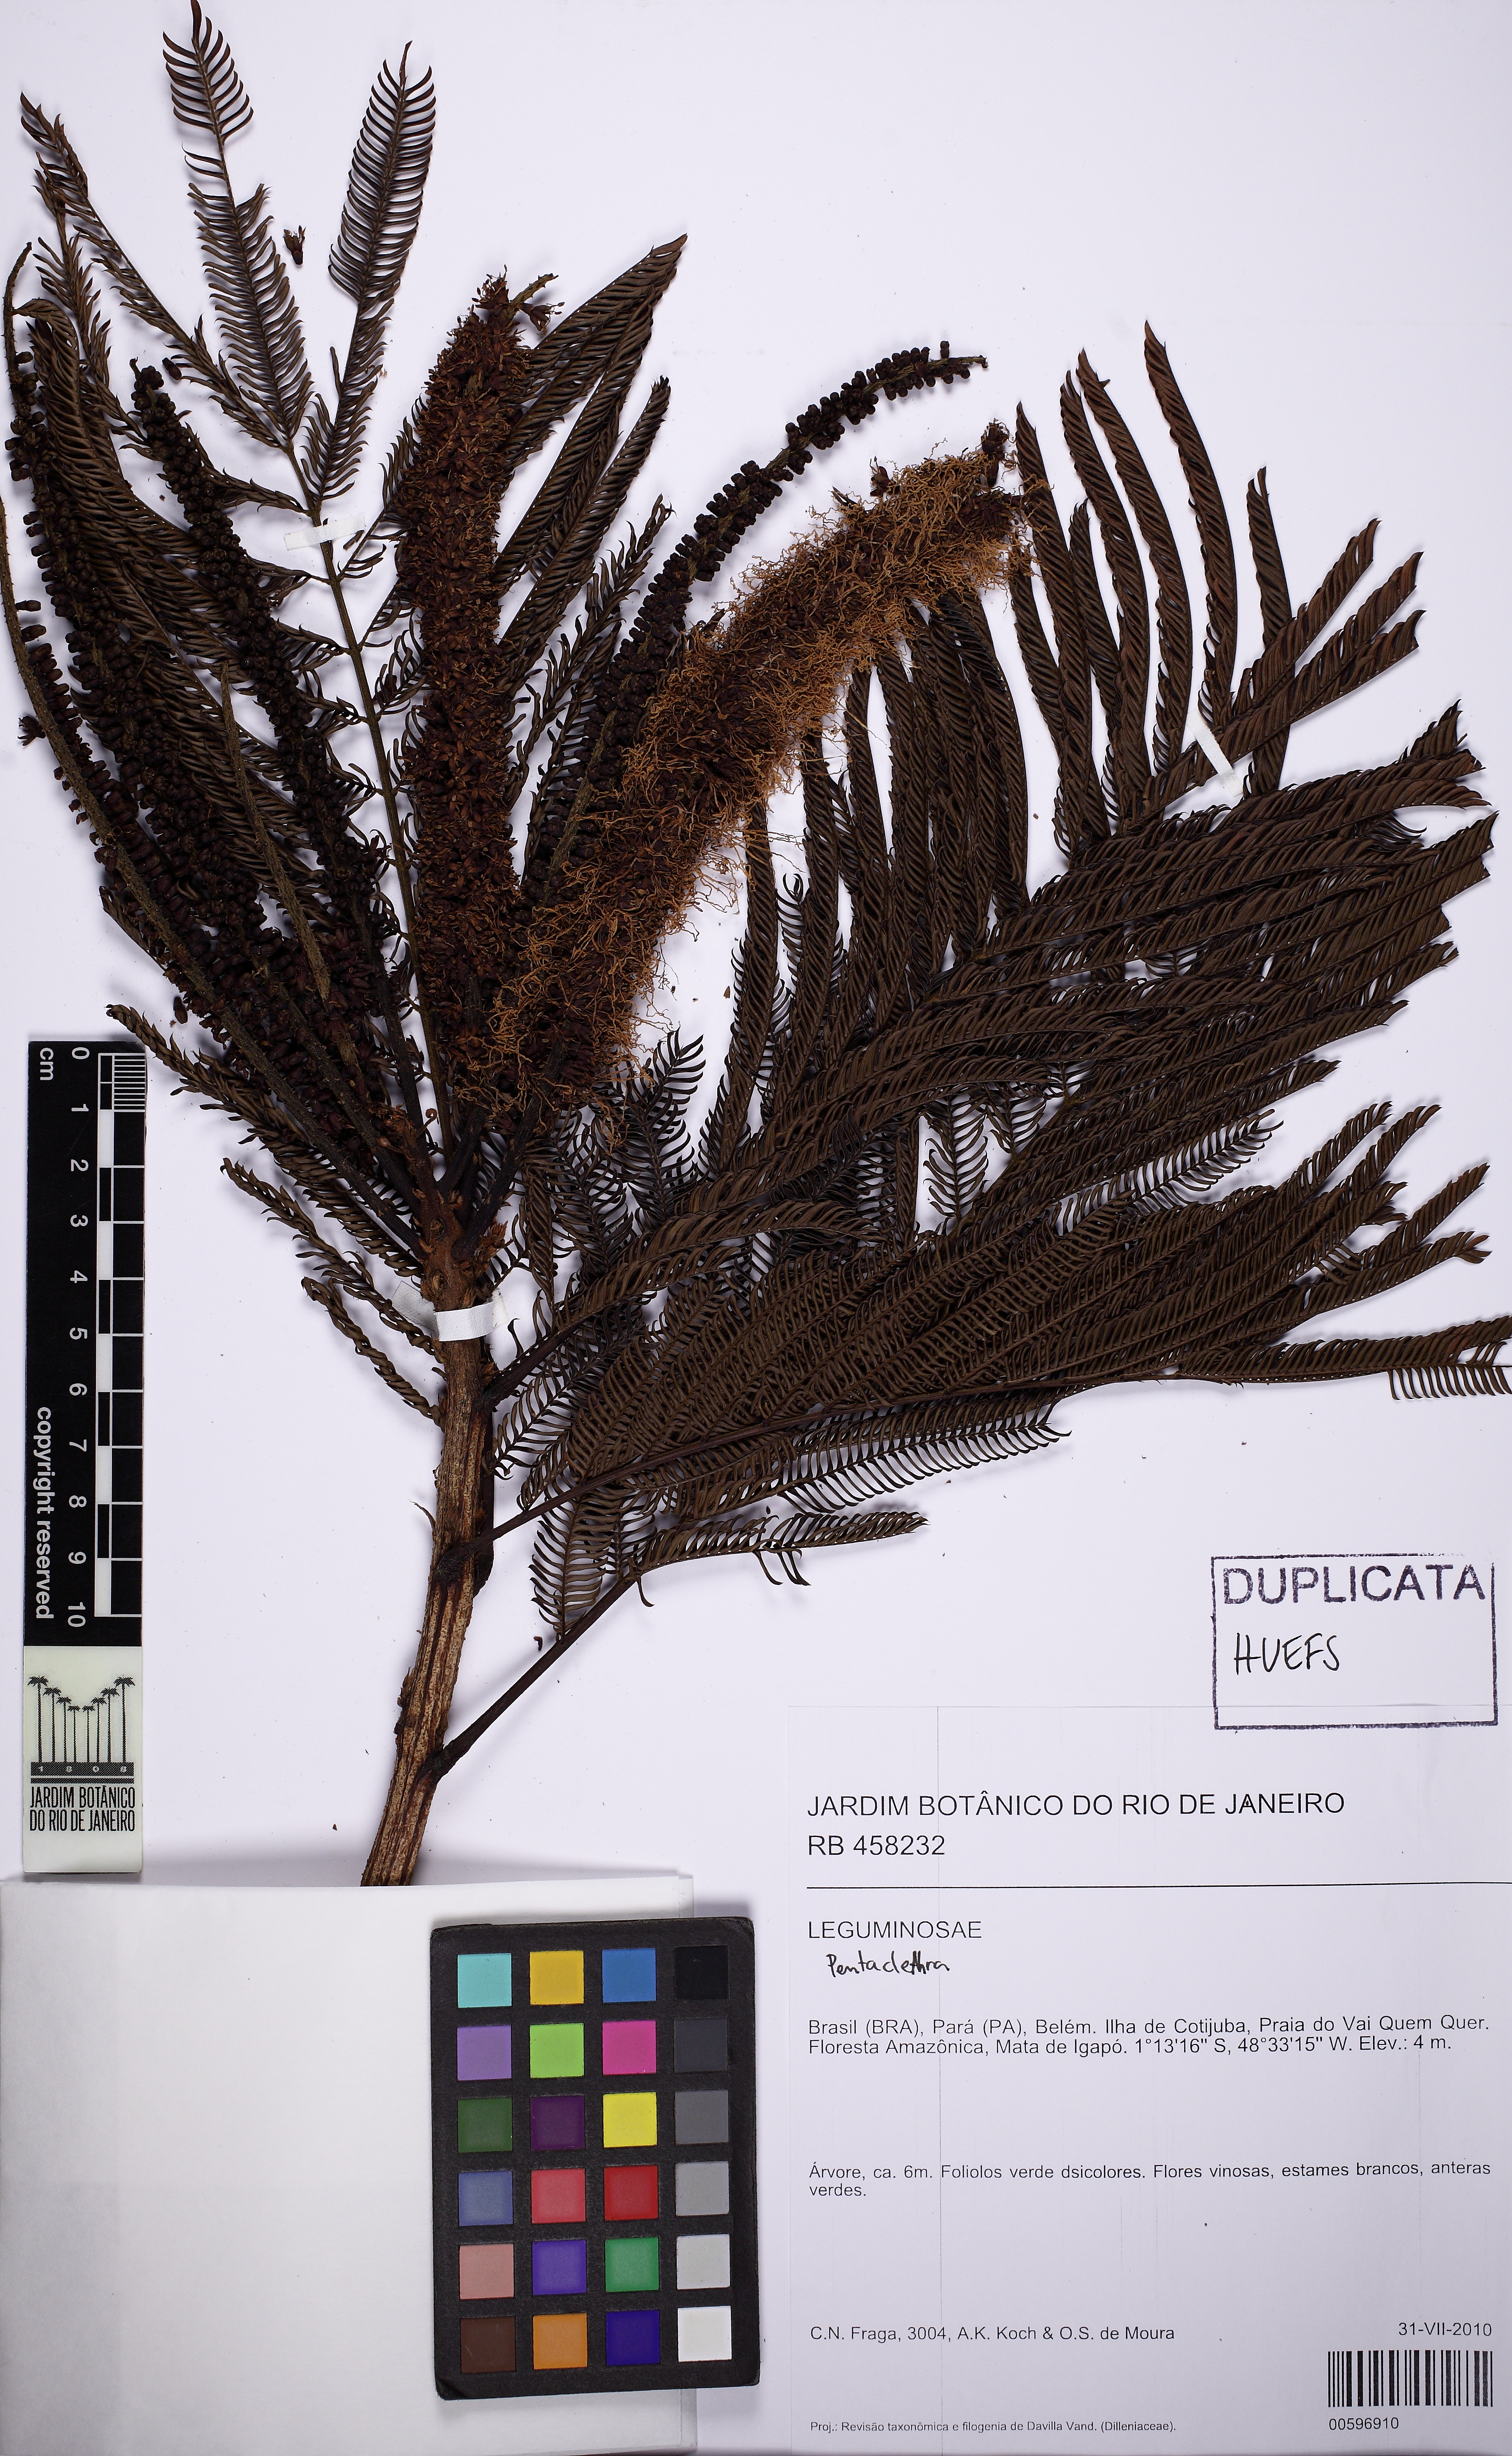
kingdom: Plantae
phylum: Tracheophyta
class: Magnoliopsida
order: Fabales
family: Fabaceae
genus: Pentaclethra
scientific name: Pentaclethra
